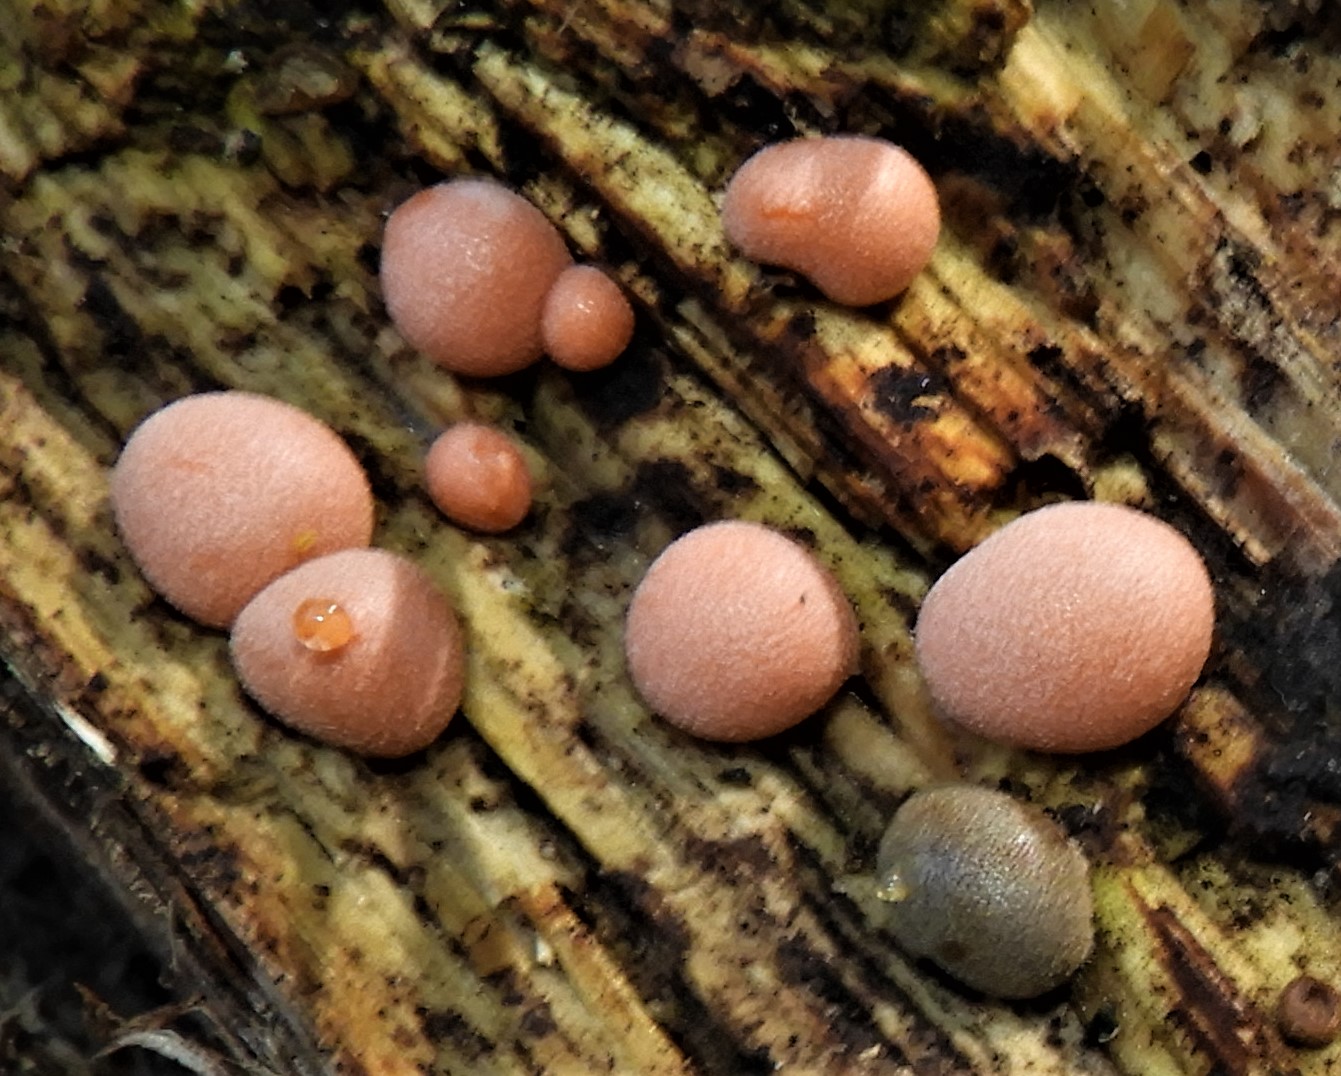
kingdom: Protozoa
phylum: Mycetozoa
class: Myxomycetes
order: Cribrariales
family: Tubiferaceae
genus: Lycogala
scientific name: Lycogala epidendrum
